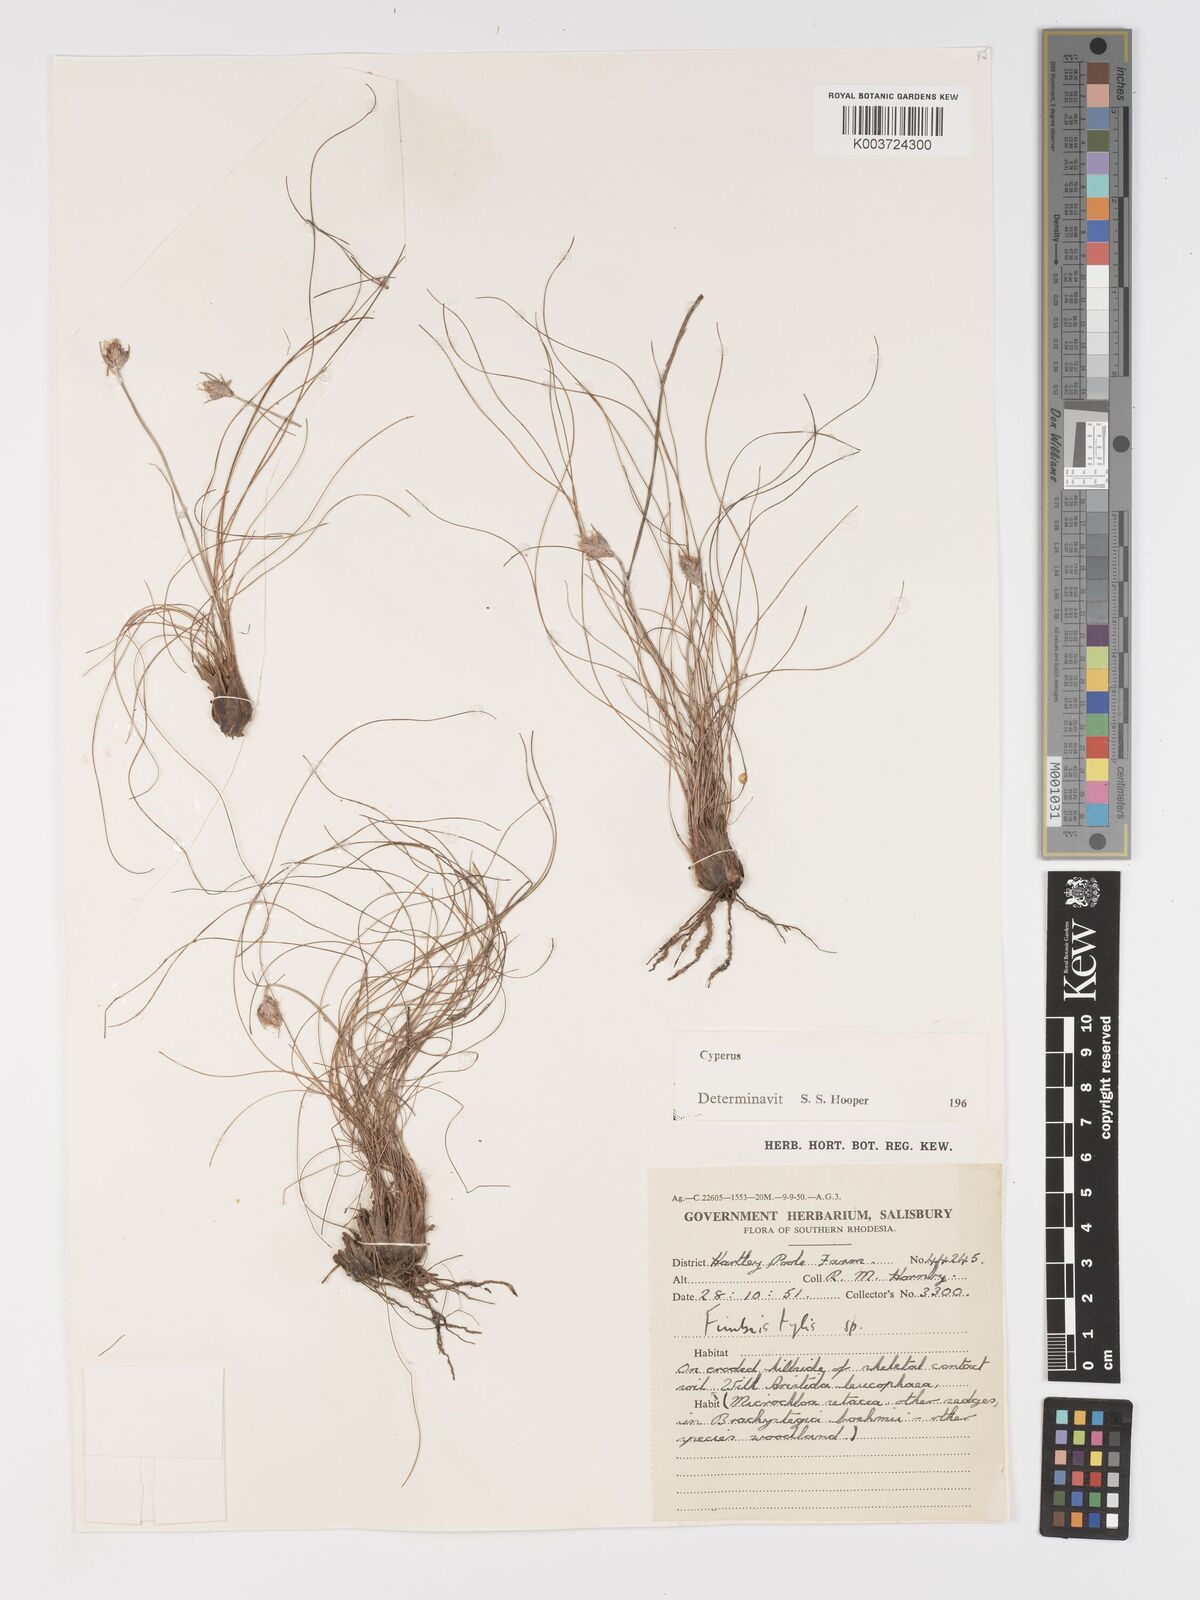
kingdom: Plantae
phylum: Tracheophyta
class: Liliopsida
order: Poales
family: Cyperaceae
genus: Cyperus
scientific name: Cyperus
